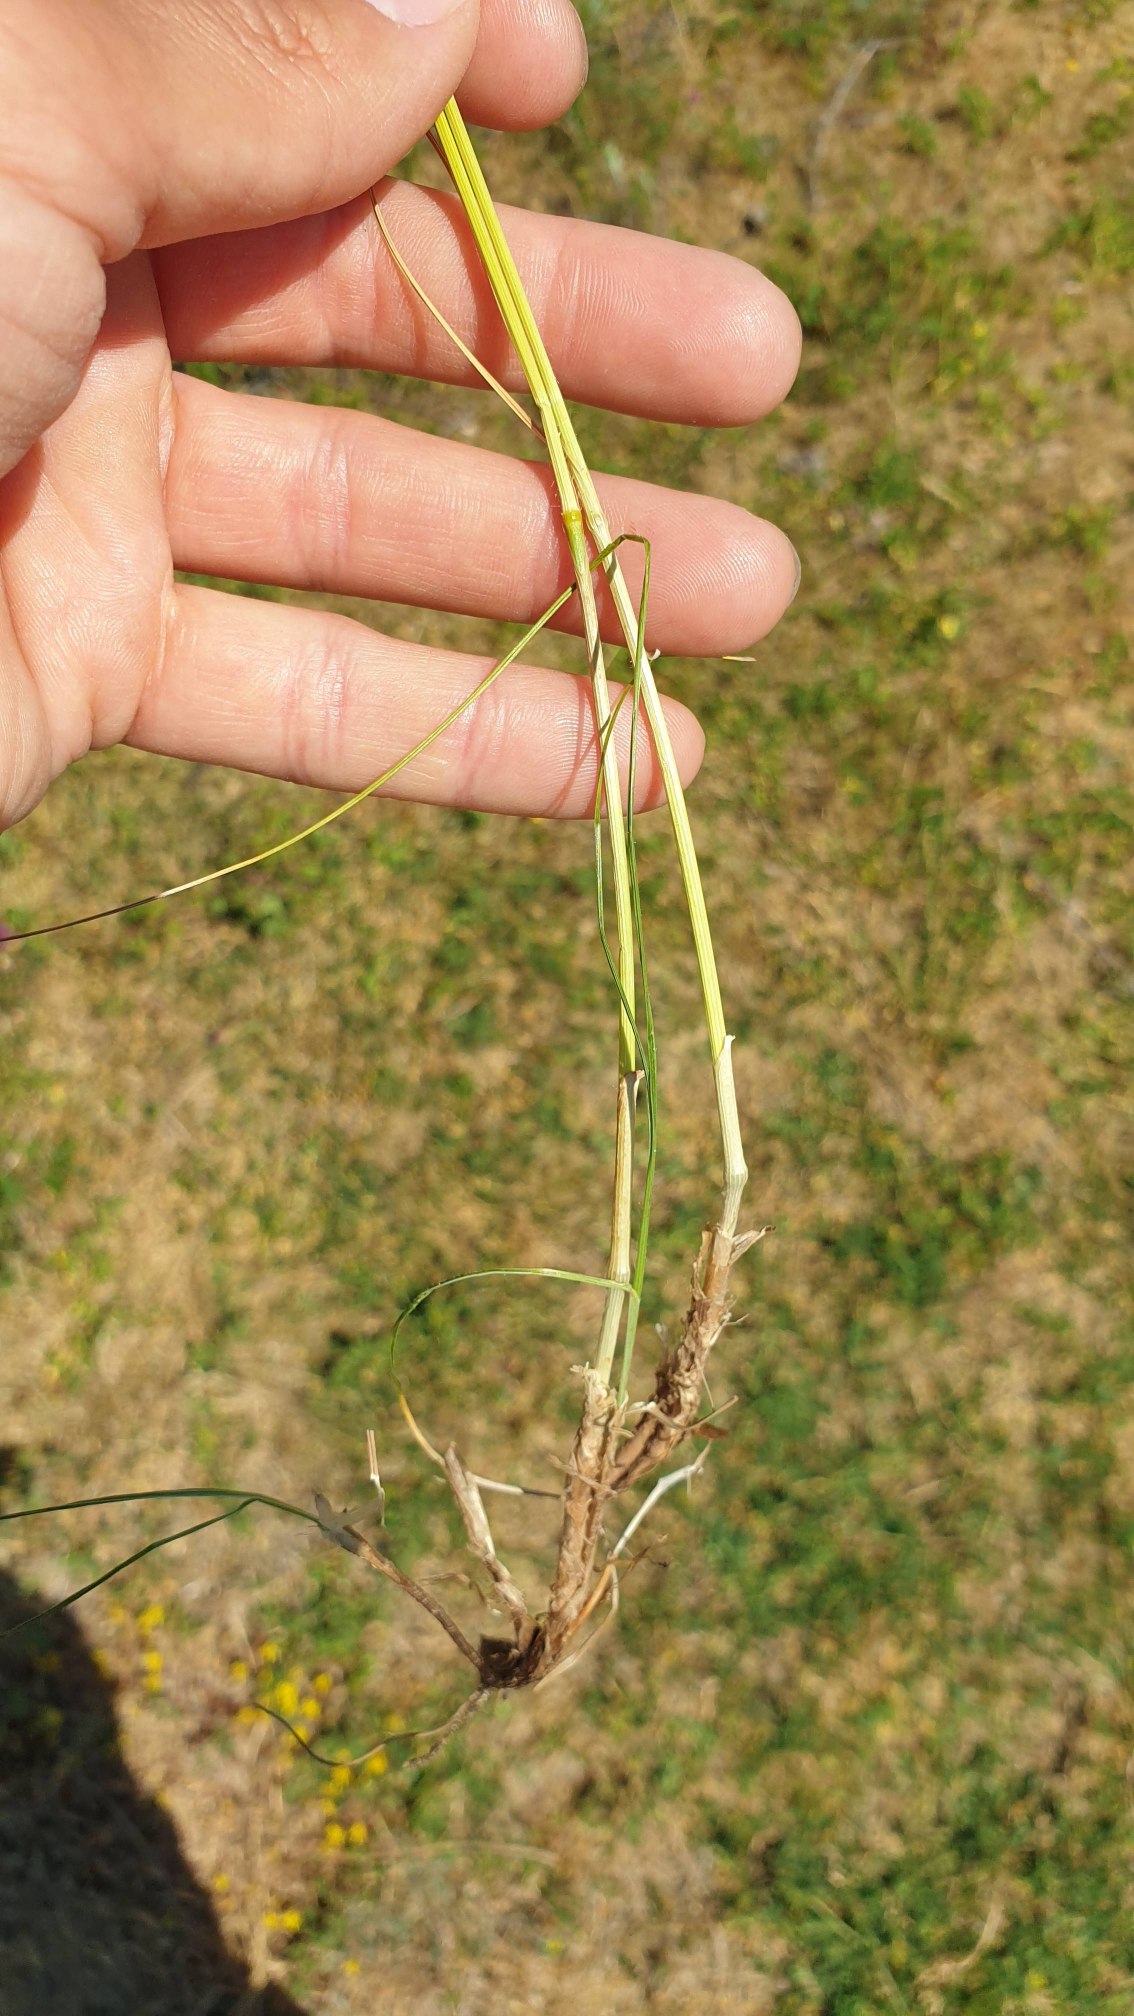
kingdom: Plantae
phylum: Tracheophyta
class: Liliopsida
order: Poales
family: Poaceae
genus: Bromus
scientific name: Bromus erectus
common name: Opret hejre
